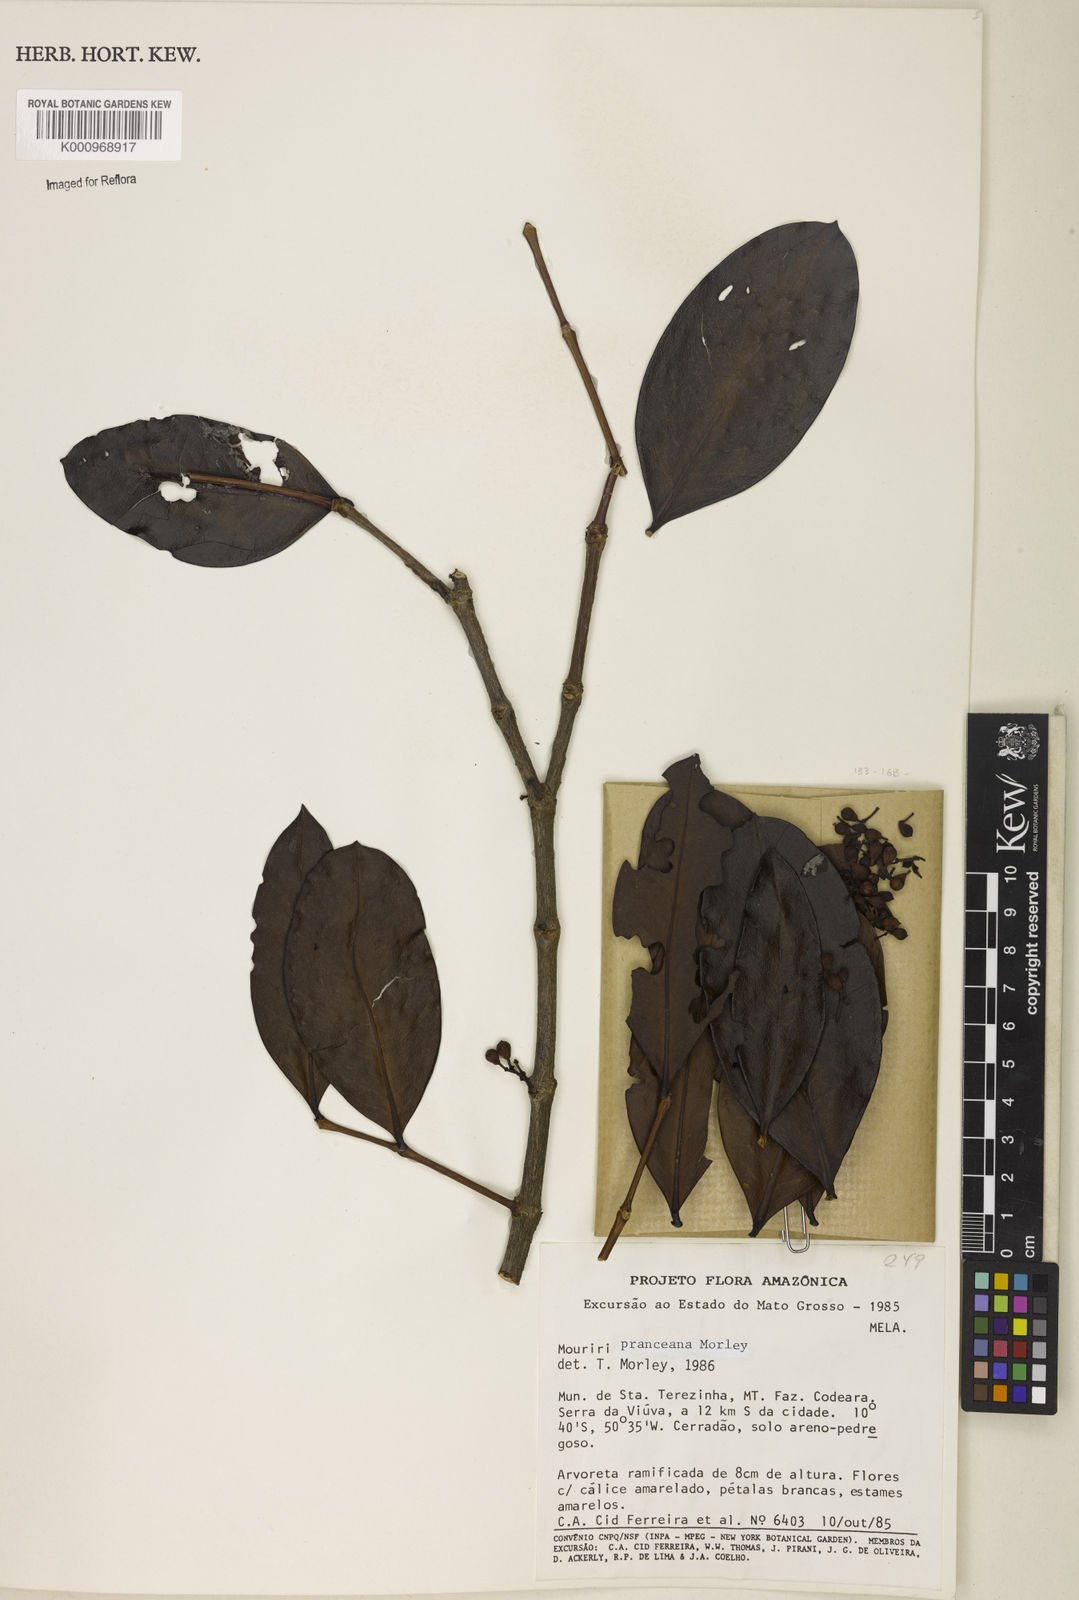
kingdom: Plantae
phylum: Tracheophyta
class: Magnoliopsida
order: Myrtales
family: Melastomataceae
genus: Mouriri
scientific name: Mouriri pranceana
